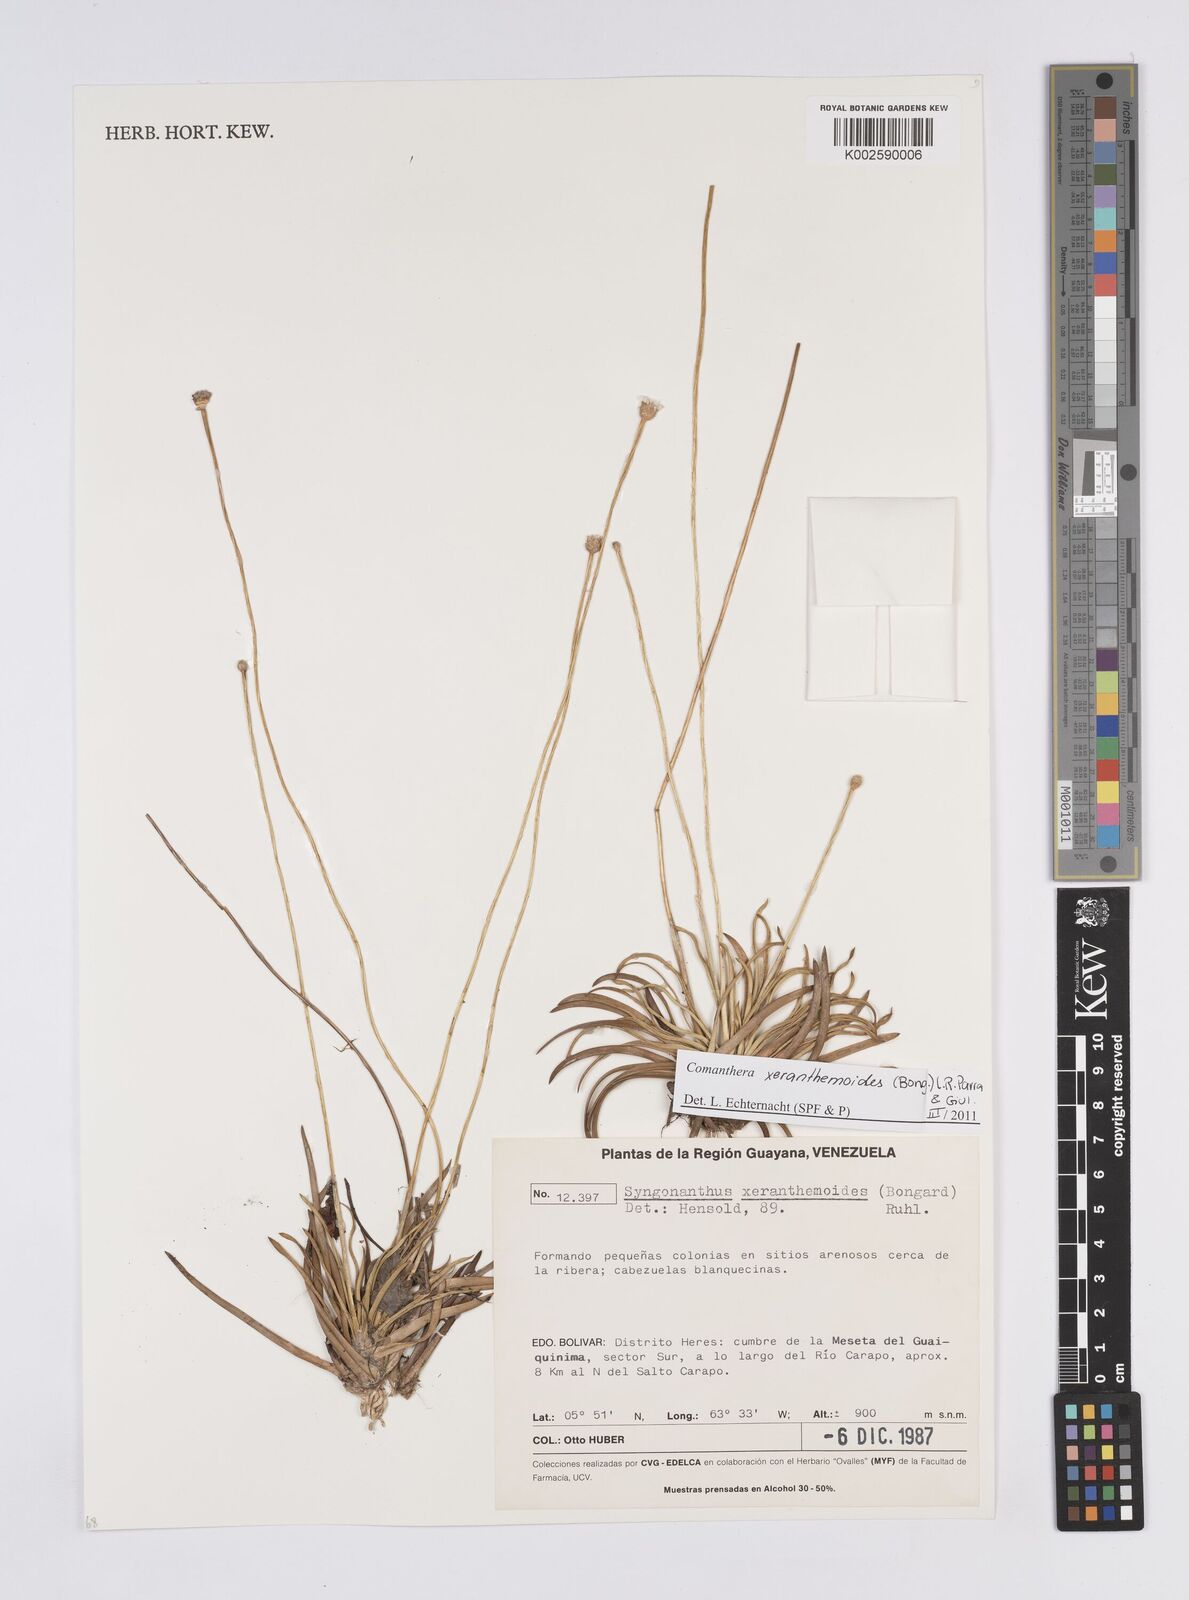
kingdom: Plantae
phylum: Tracheophyta
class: Liliopsida
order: Poales
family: Eriocaulaceae
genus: Comanthera
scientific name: Comanthera xeranthemoides
